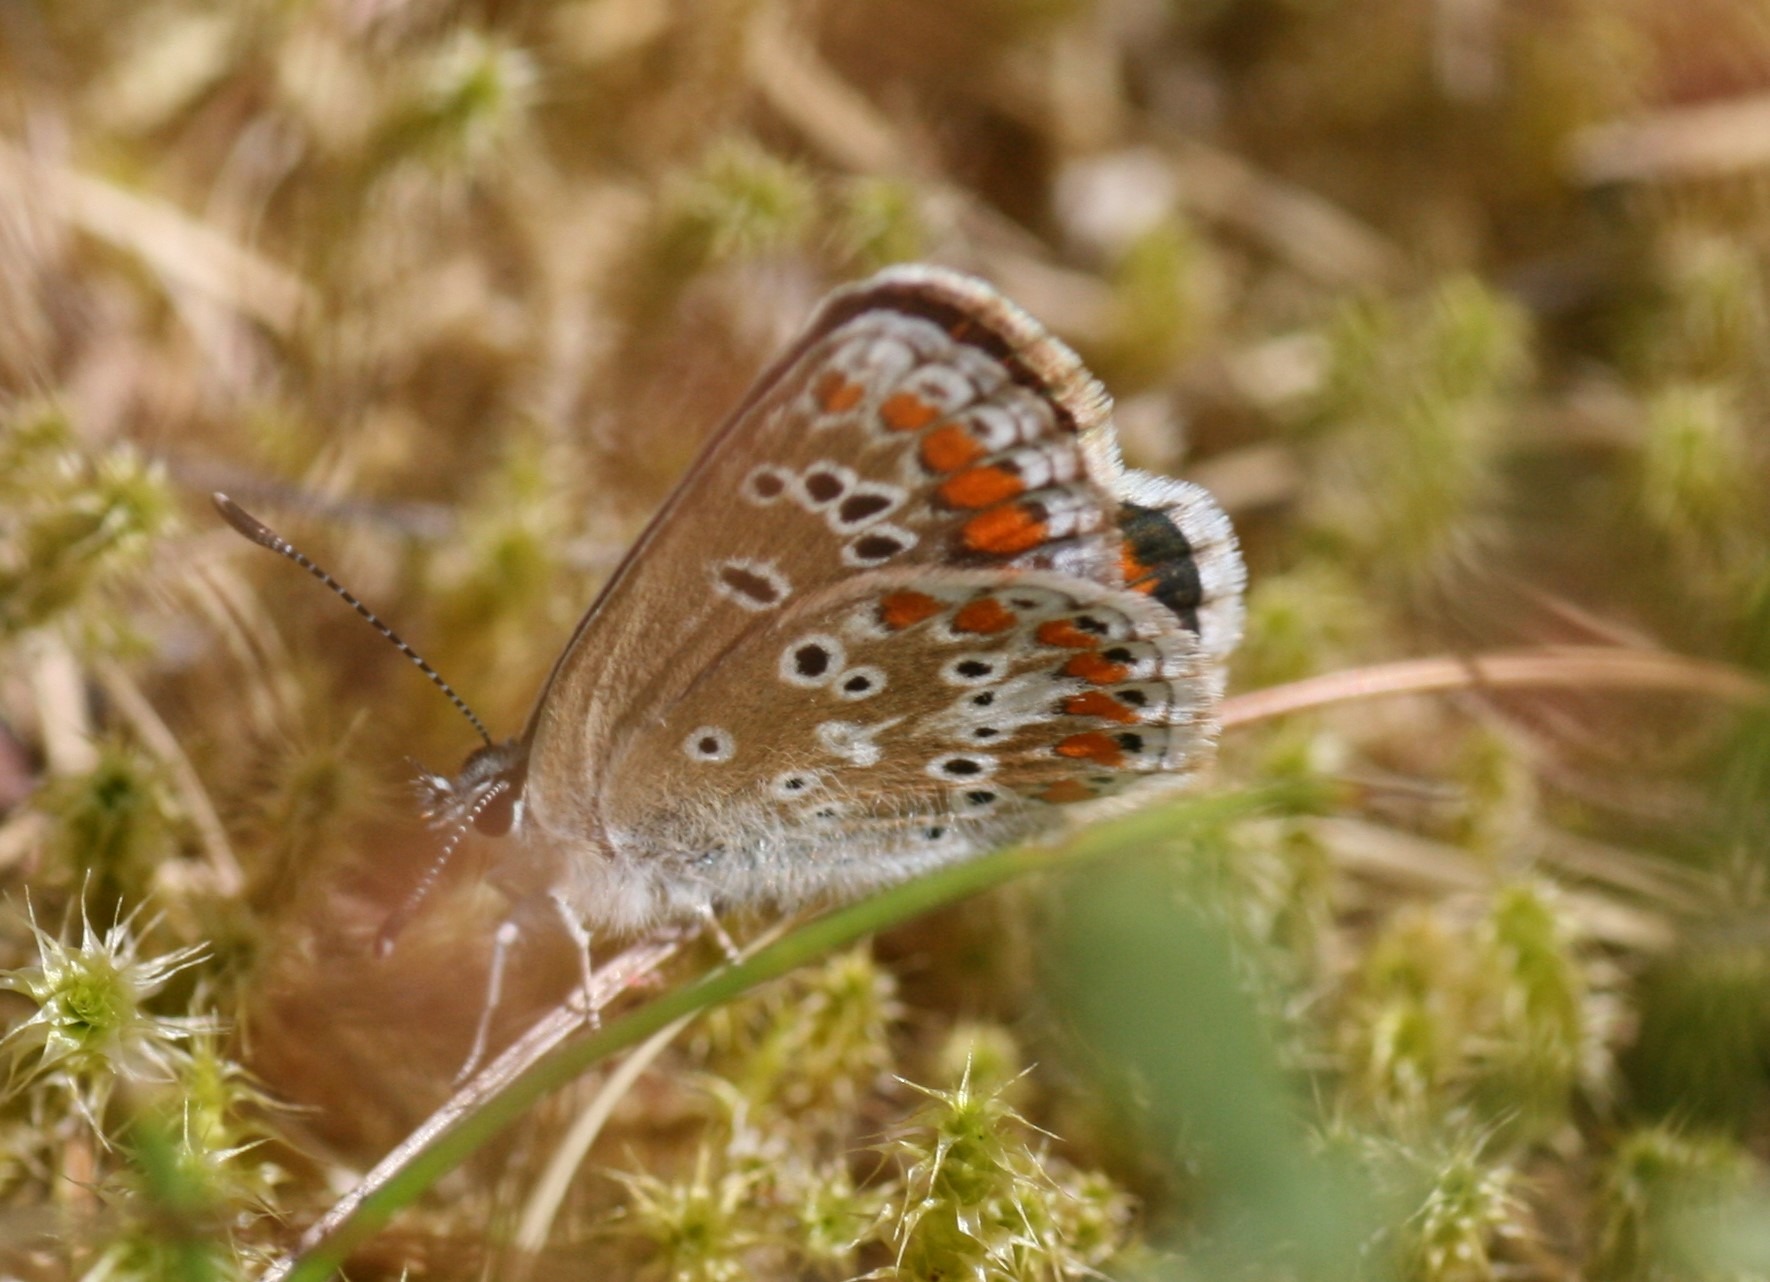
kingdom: Animalia
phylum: Arthropoda
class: Insecta
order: Lepidoptera
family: Lycaenidae
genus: Aricia
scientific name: Aricia agestis
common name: Rødplettet blåfugl
